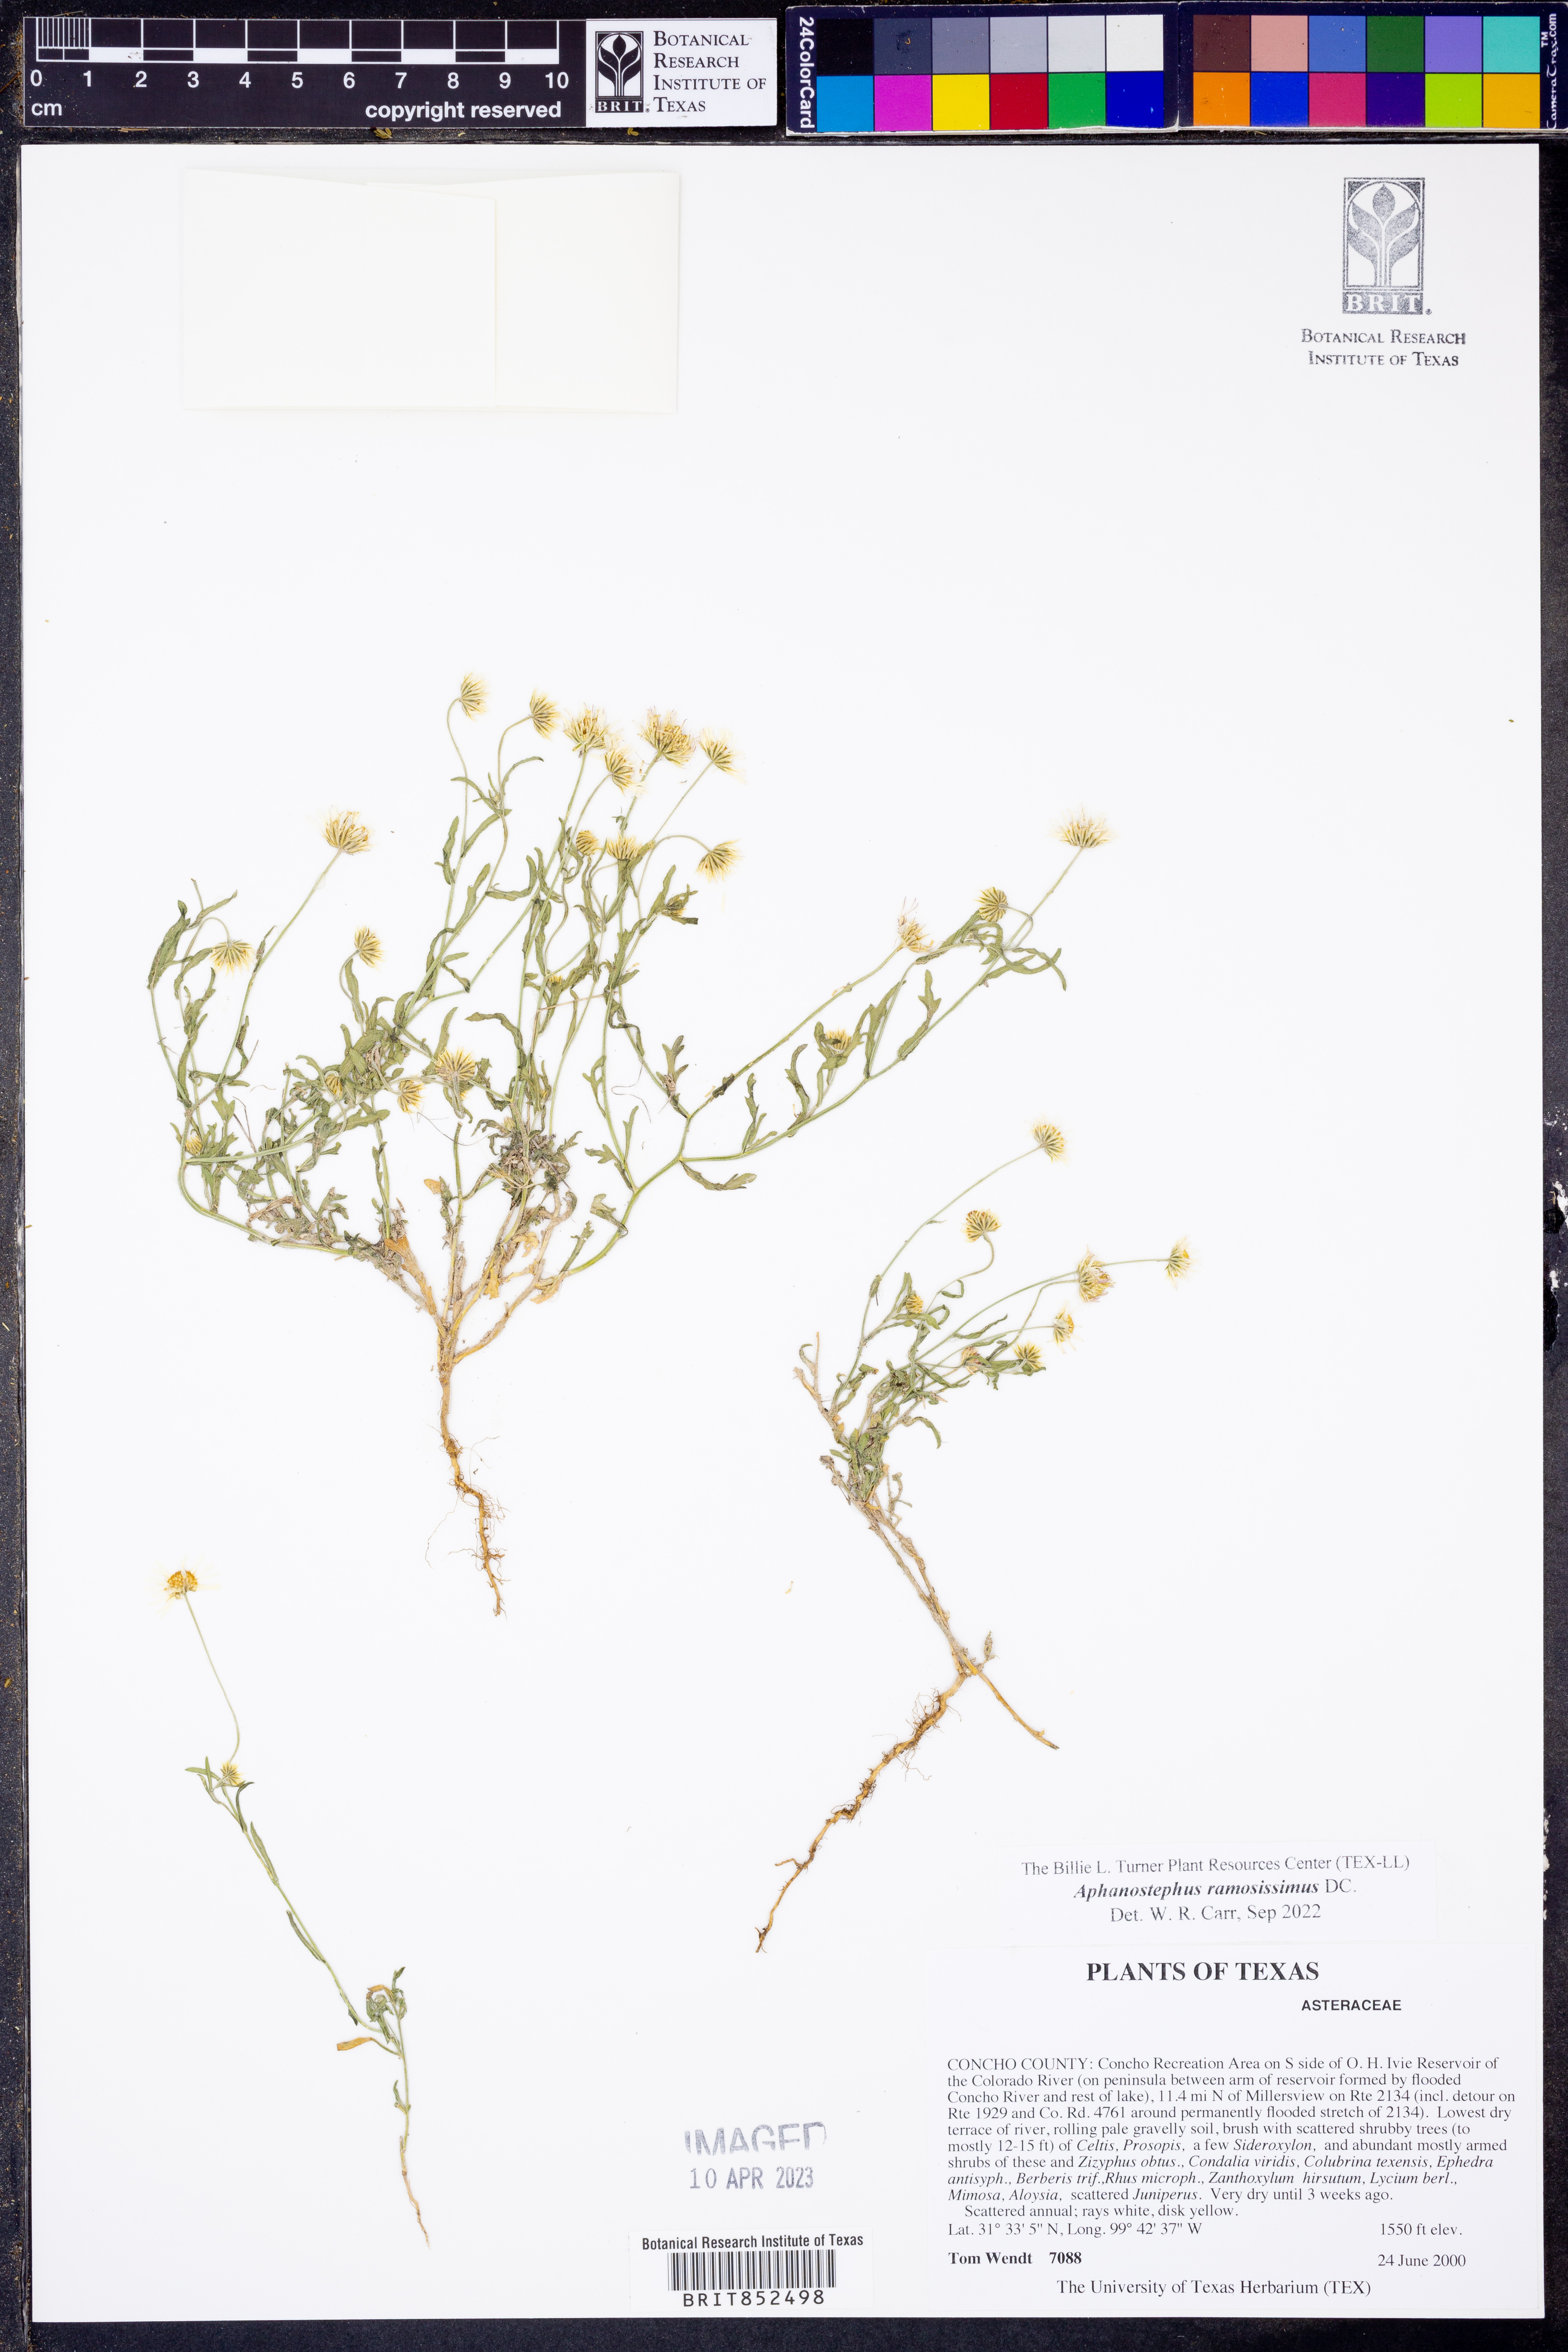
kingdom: Plantae
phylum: Tracheophyta
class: Magnoliopsida
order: Asterales
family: Asteraceae
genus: Aphanostephus
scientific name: Aphanostephus ramosissimus
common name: Plains lazy daisy
